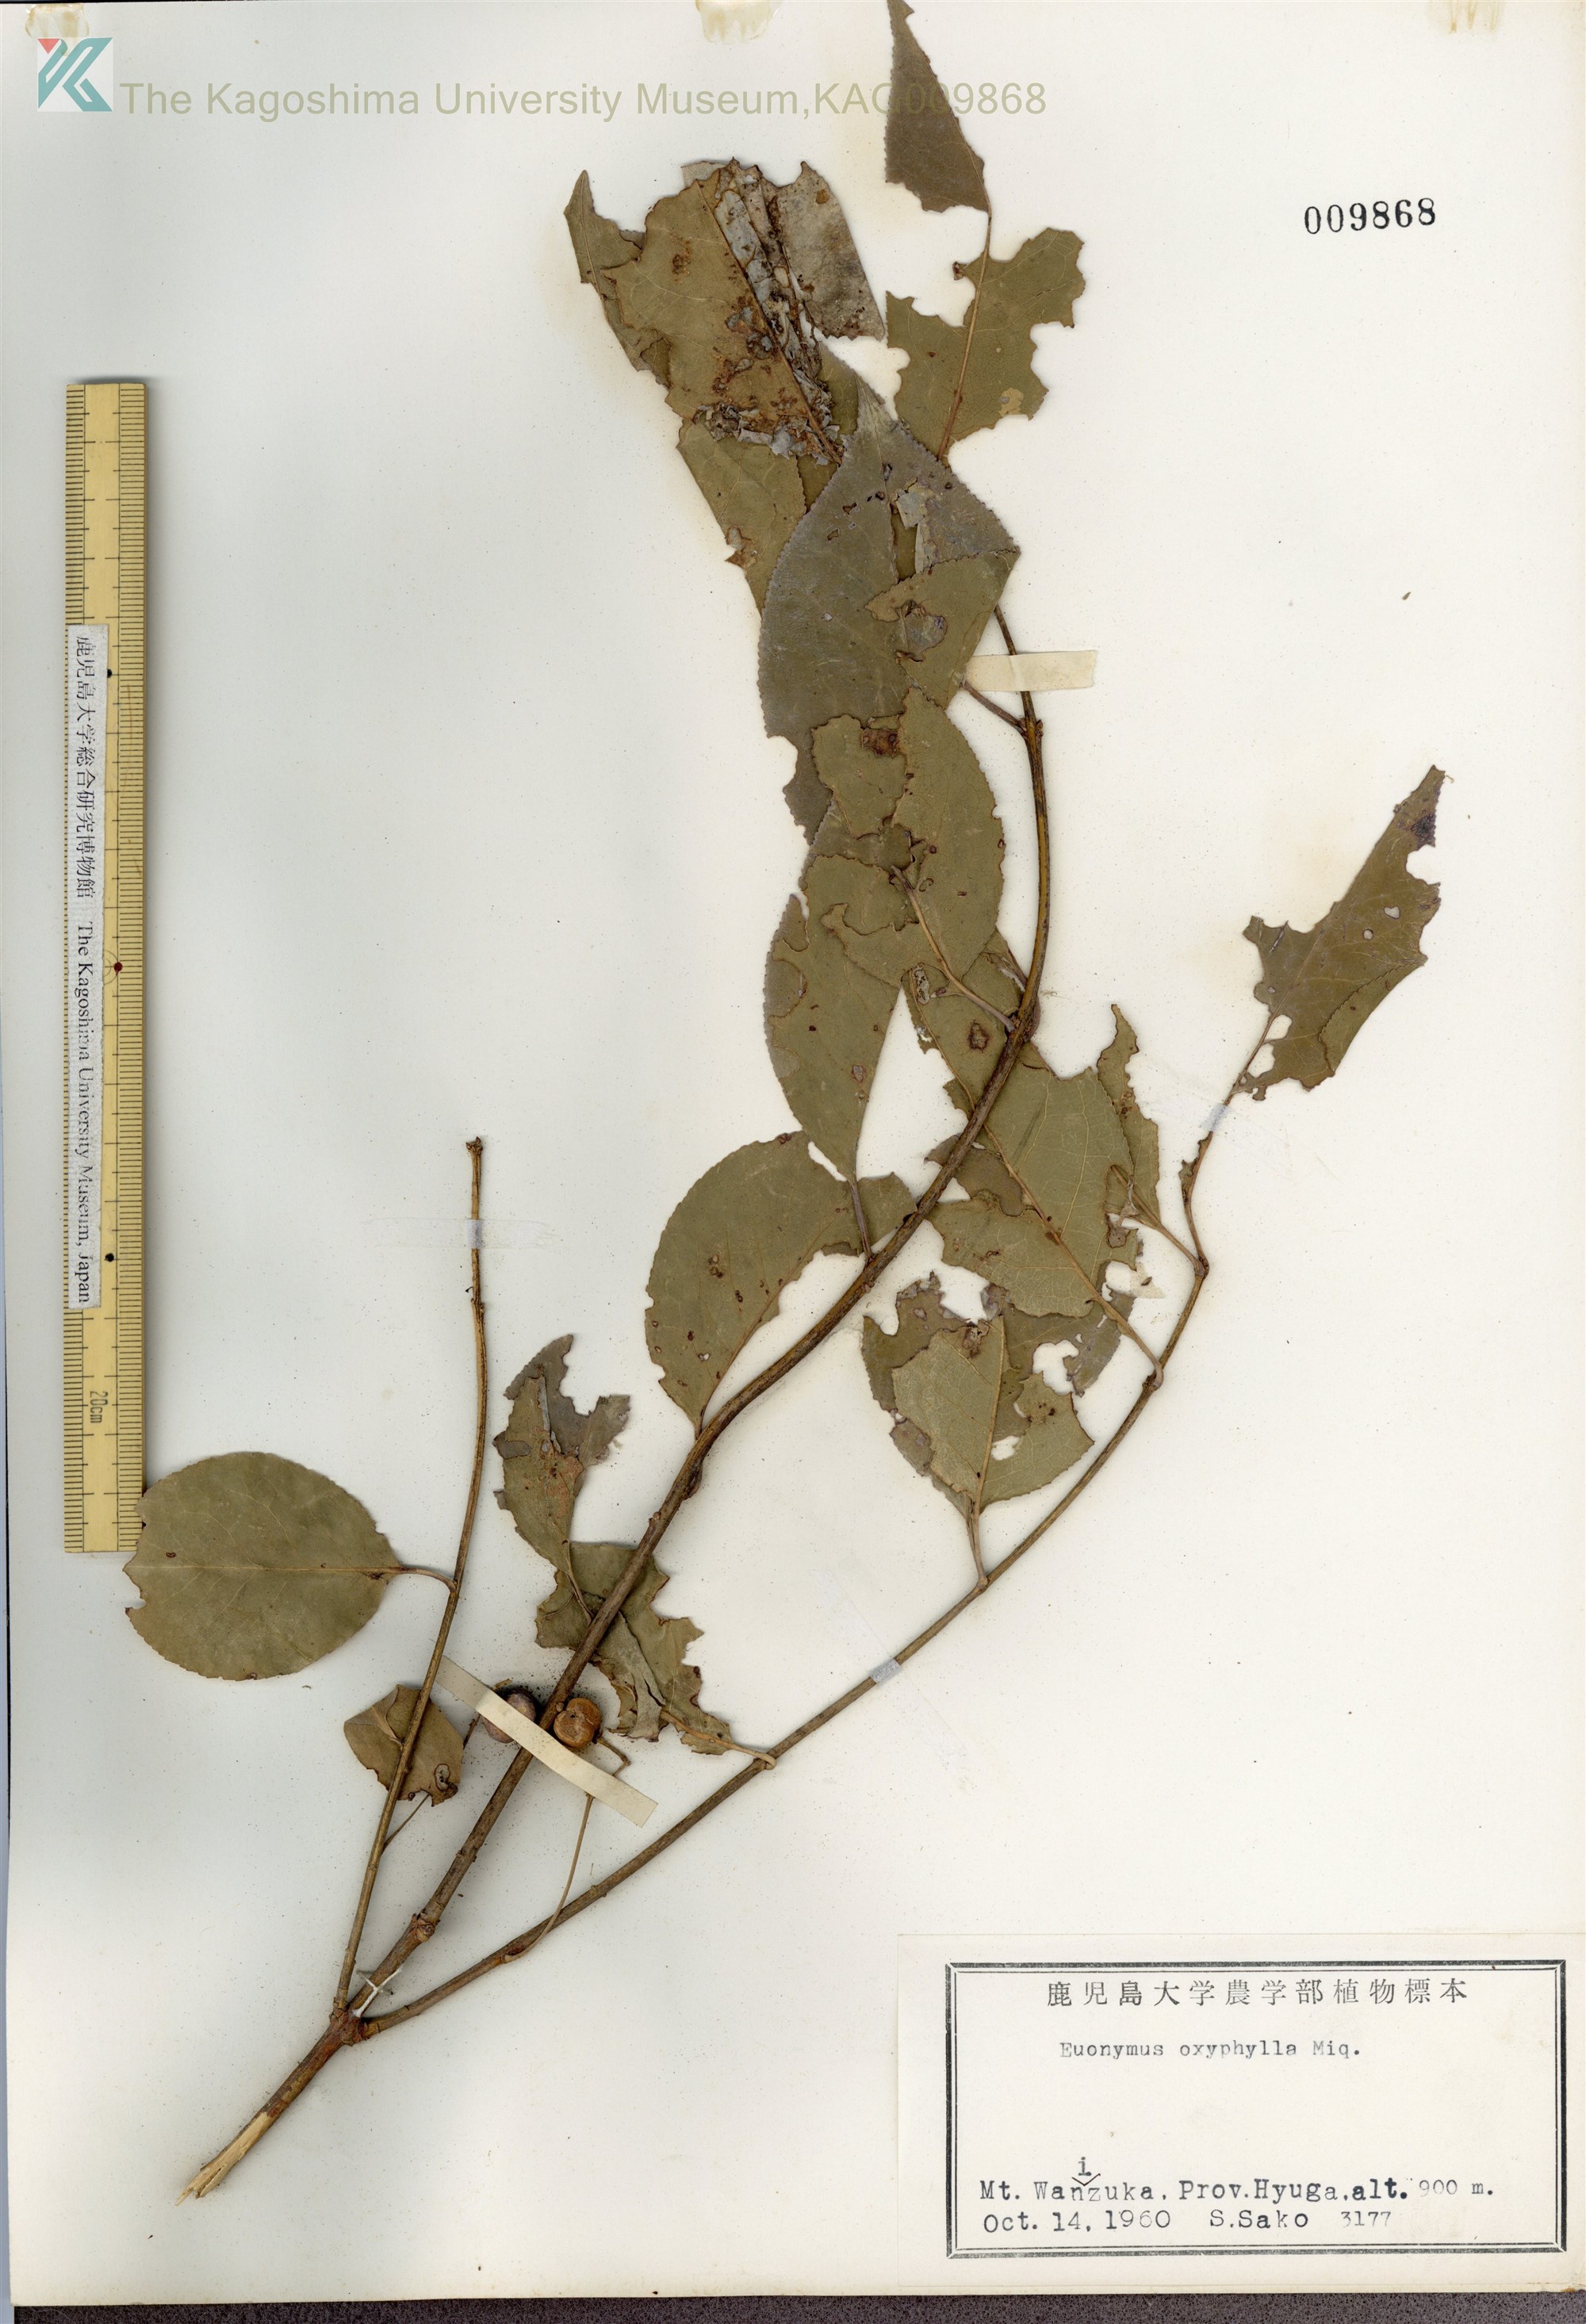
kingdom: Plantae
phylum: Tracheophyta
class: Magnoliopsida
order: Celastrales
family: Celastraceae
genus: Euonymus
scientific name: Euonymus hamiltonianus
